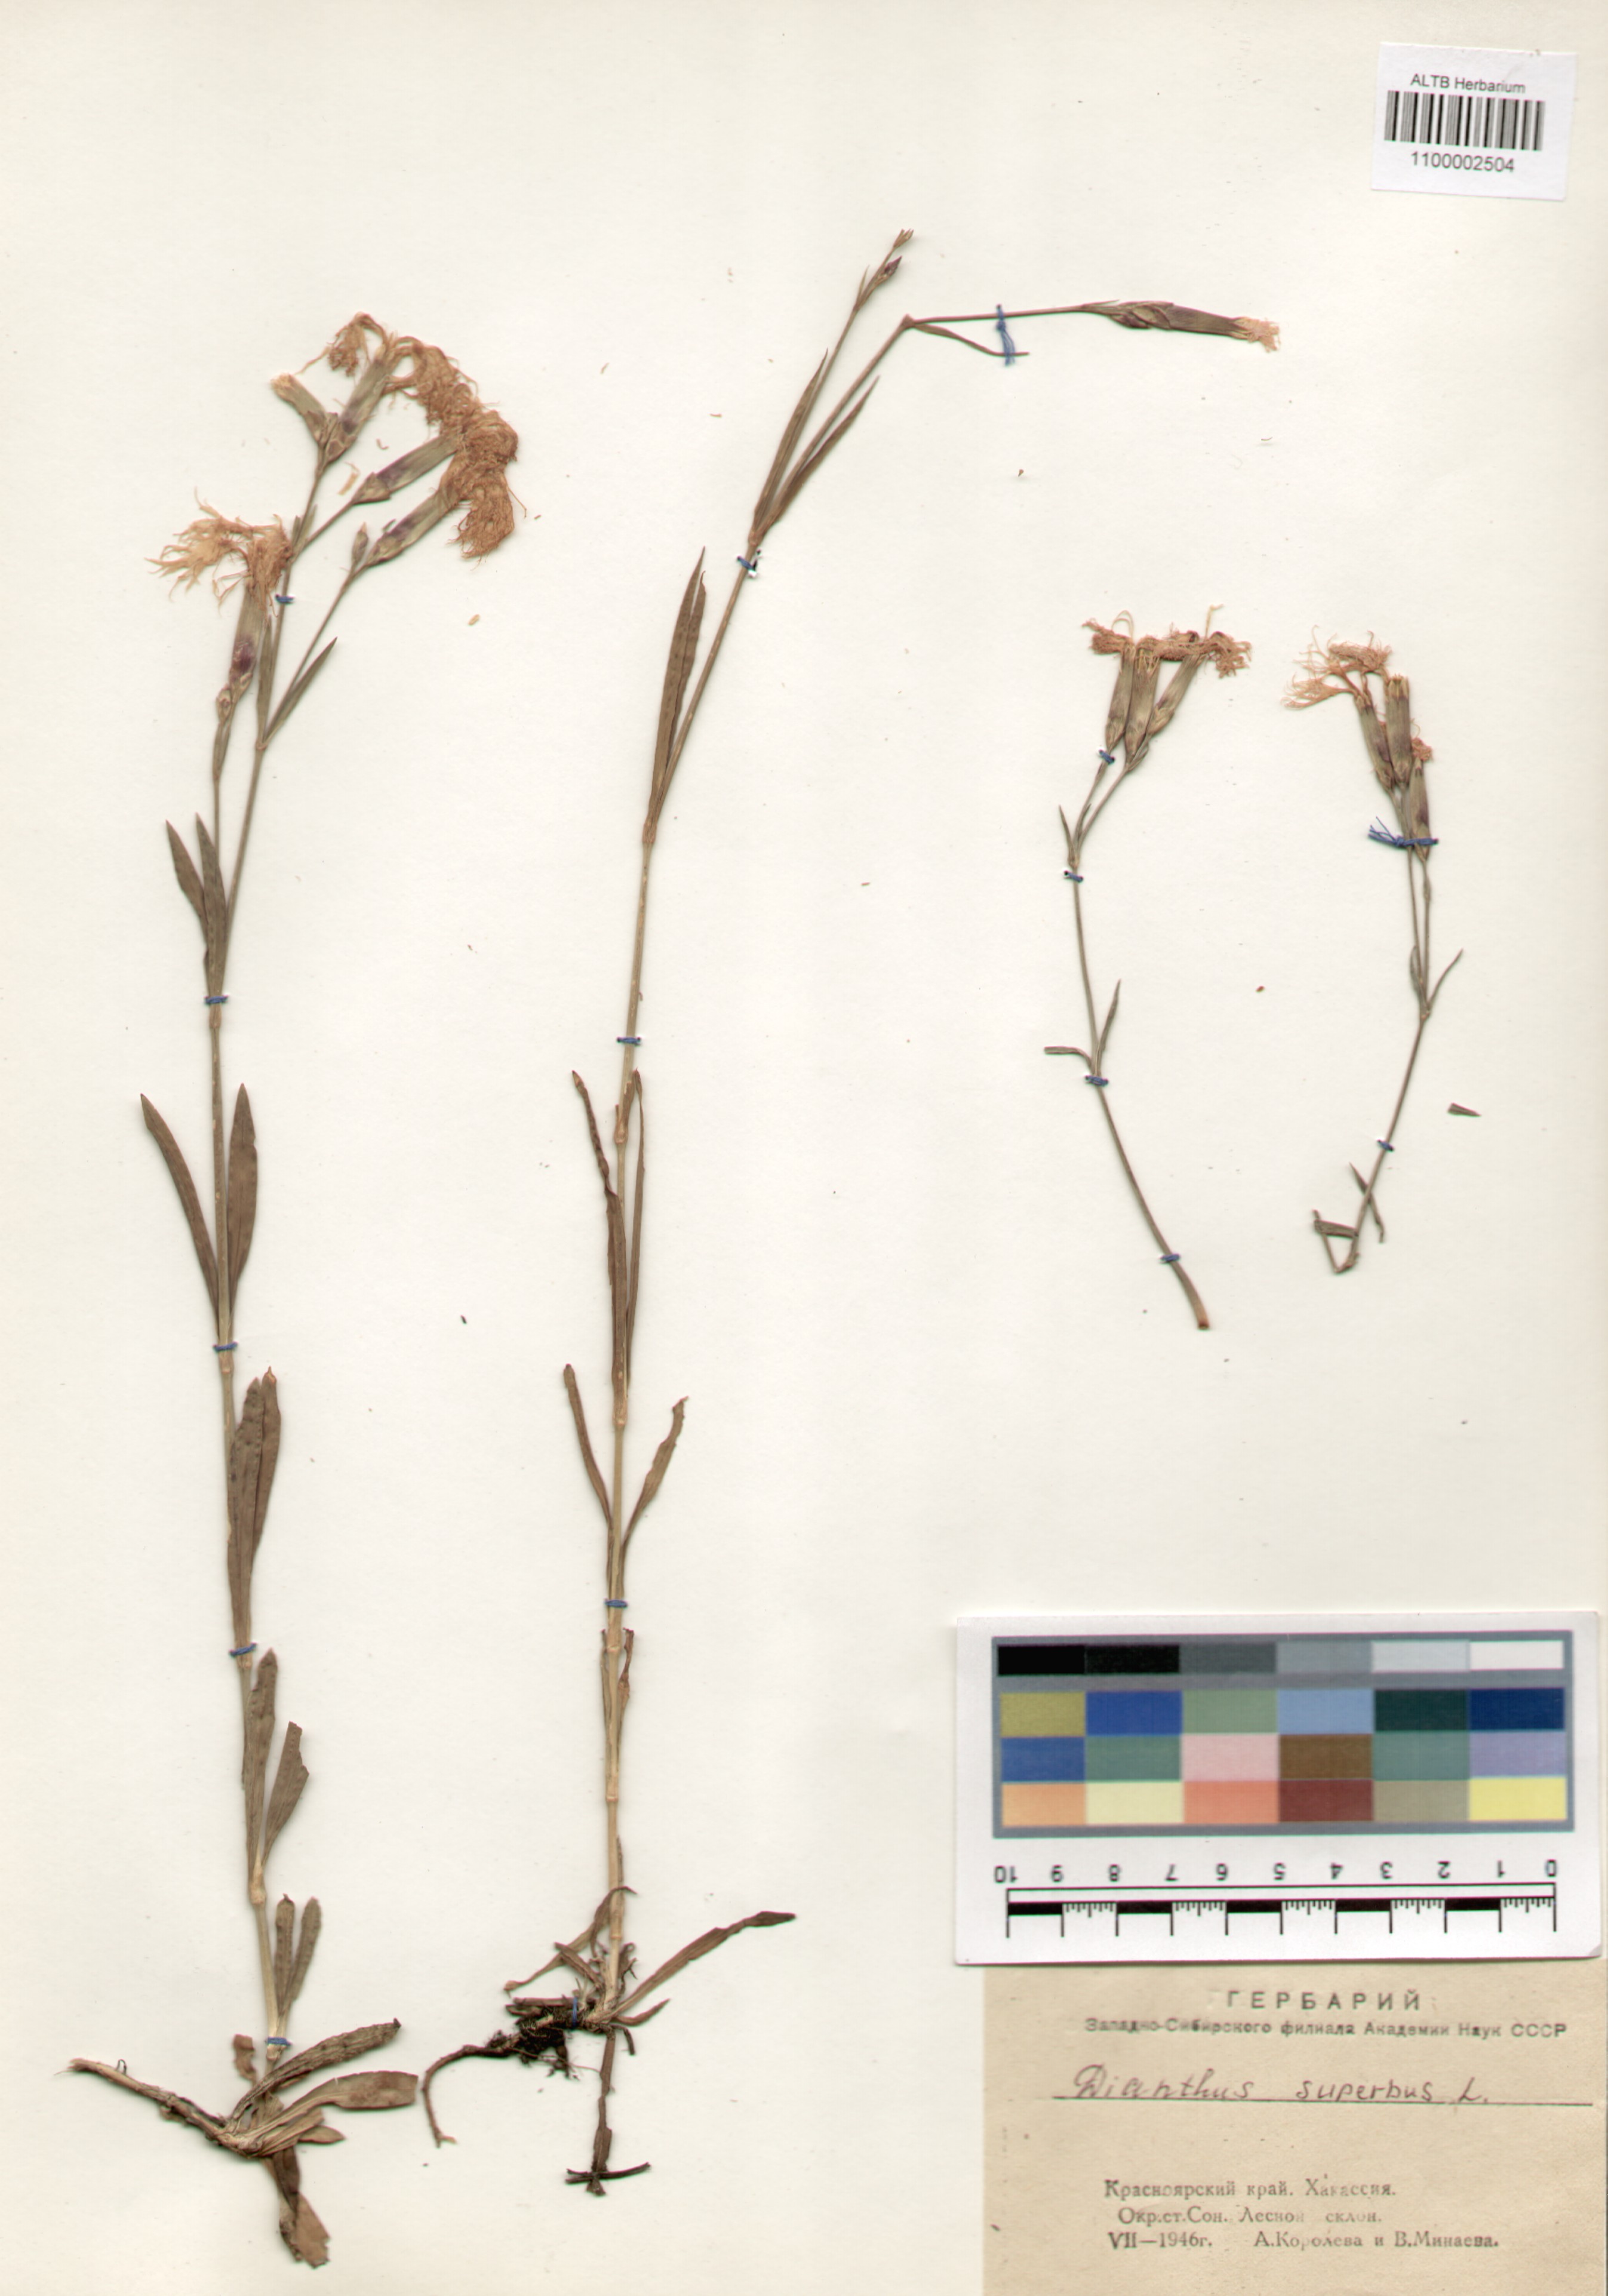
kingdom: Plantae
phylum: Tracheophyta
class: Magnoliopsida
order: Caryophyllales
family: Caryophyllaceae
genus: Dianthus
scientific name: Dianthus superbus
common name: Fringed pink
